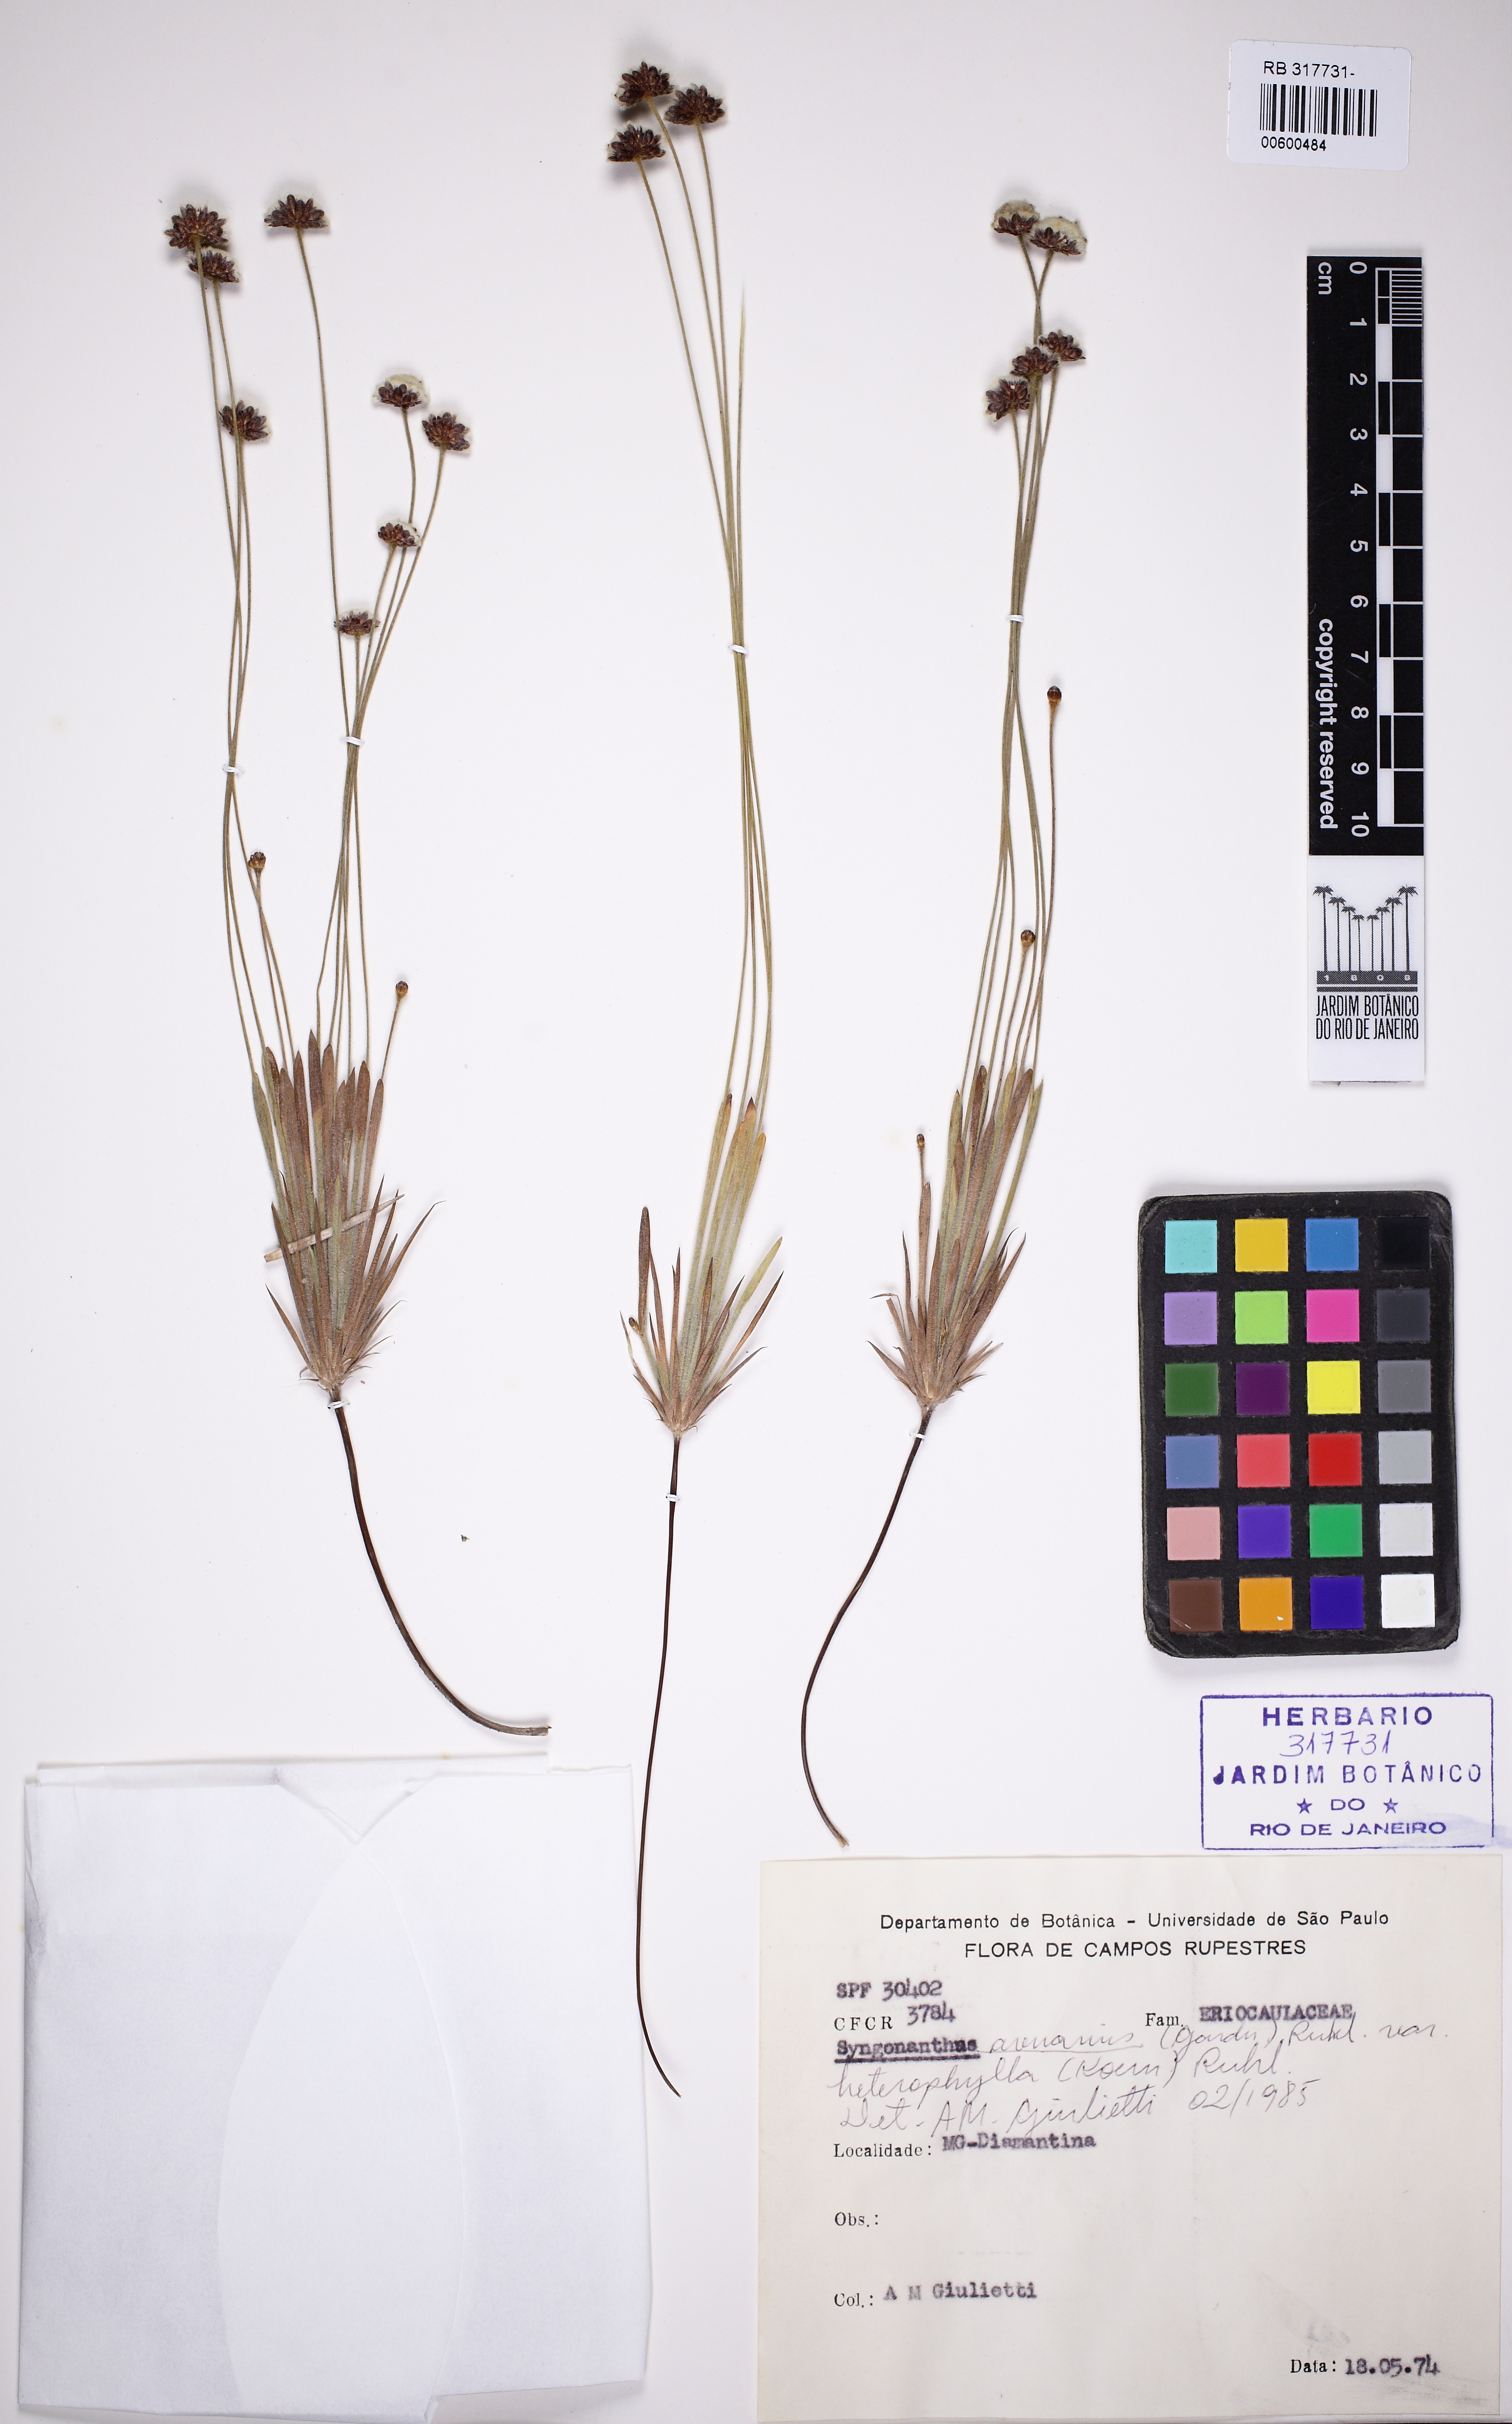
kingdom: Plantae
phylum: Tracheophyta
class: Liliopsida
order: Poales
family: Eriocaulaceae
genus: Syngonanthus
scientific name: Syngonanthus arenarius
